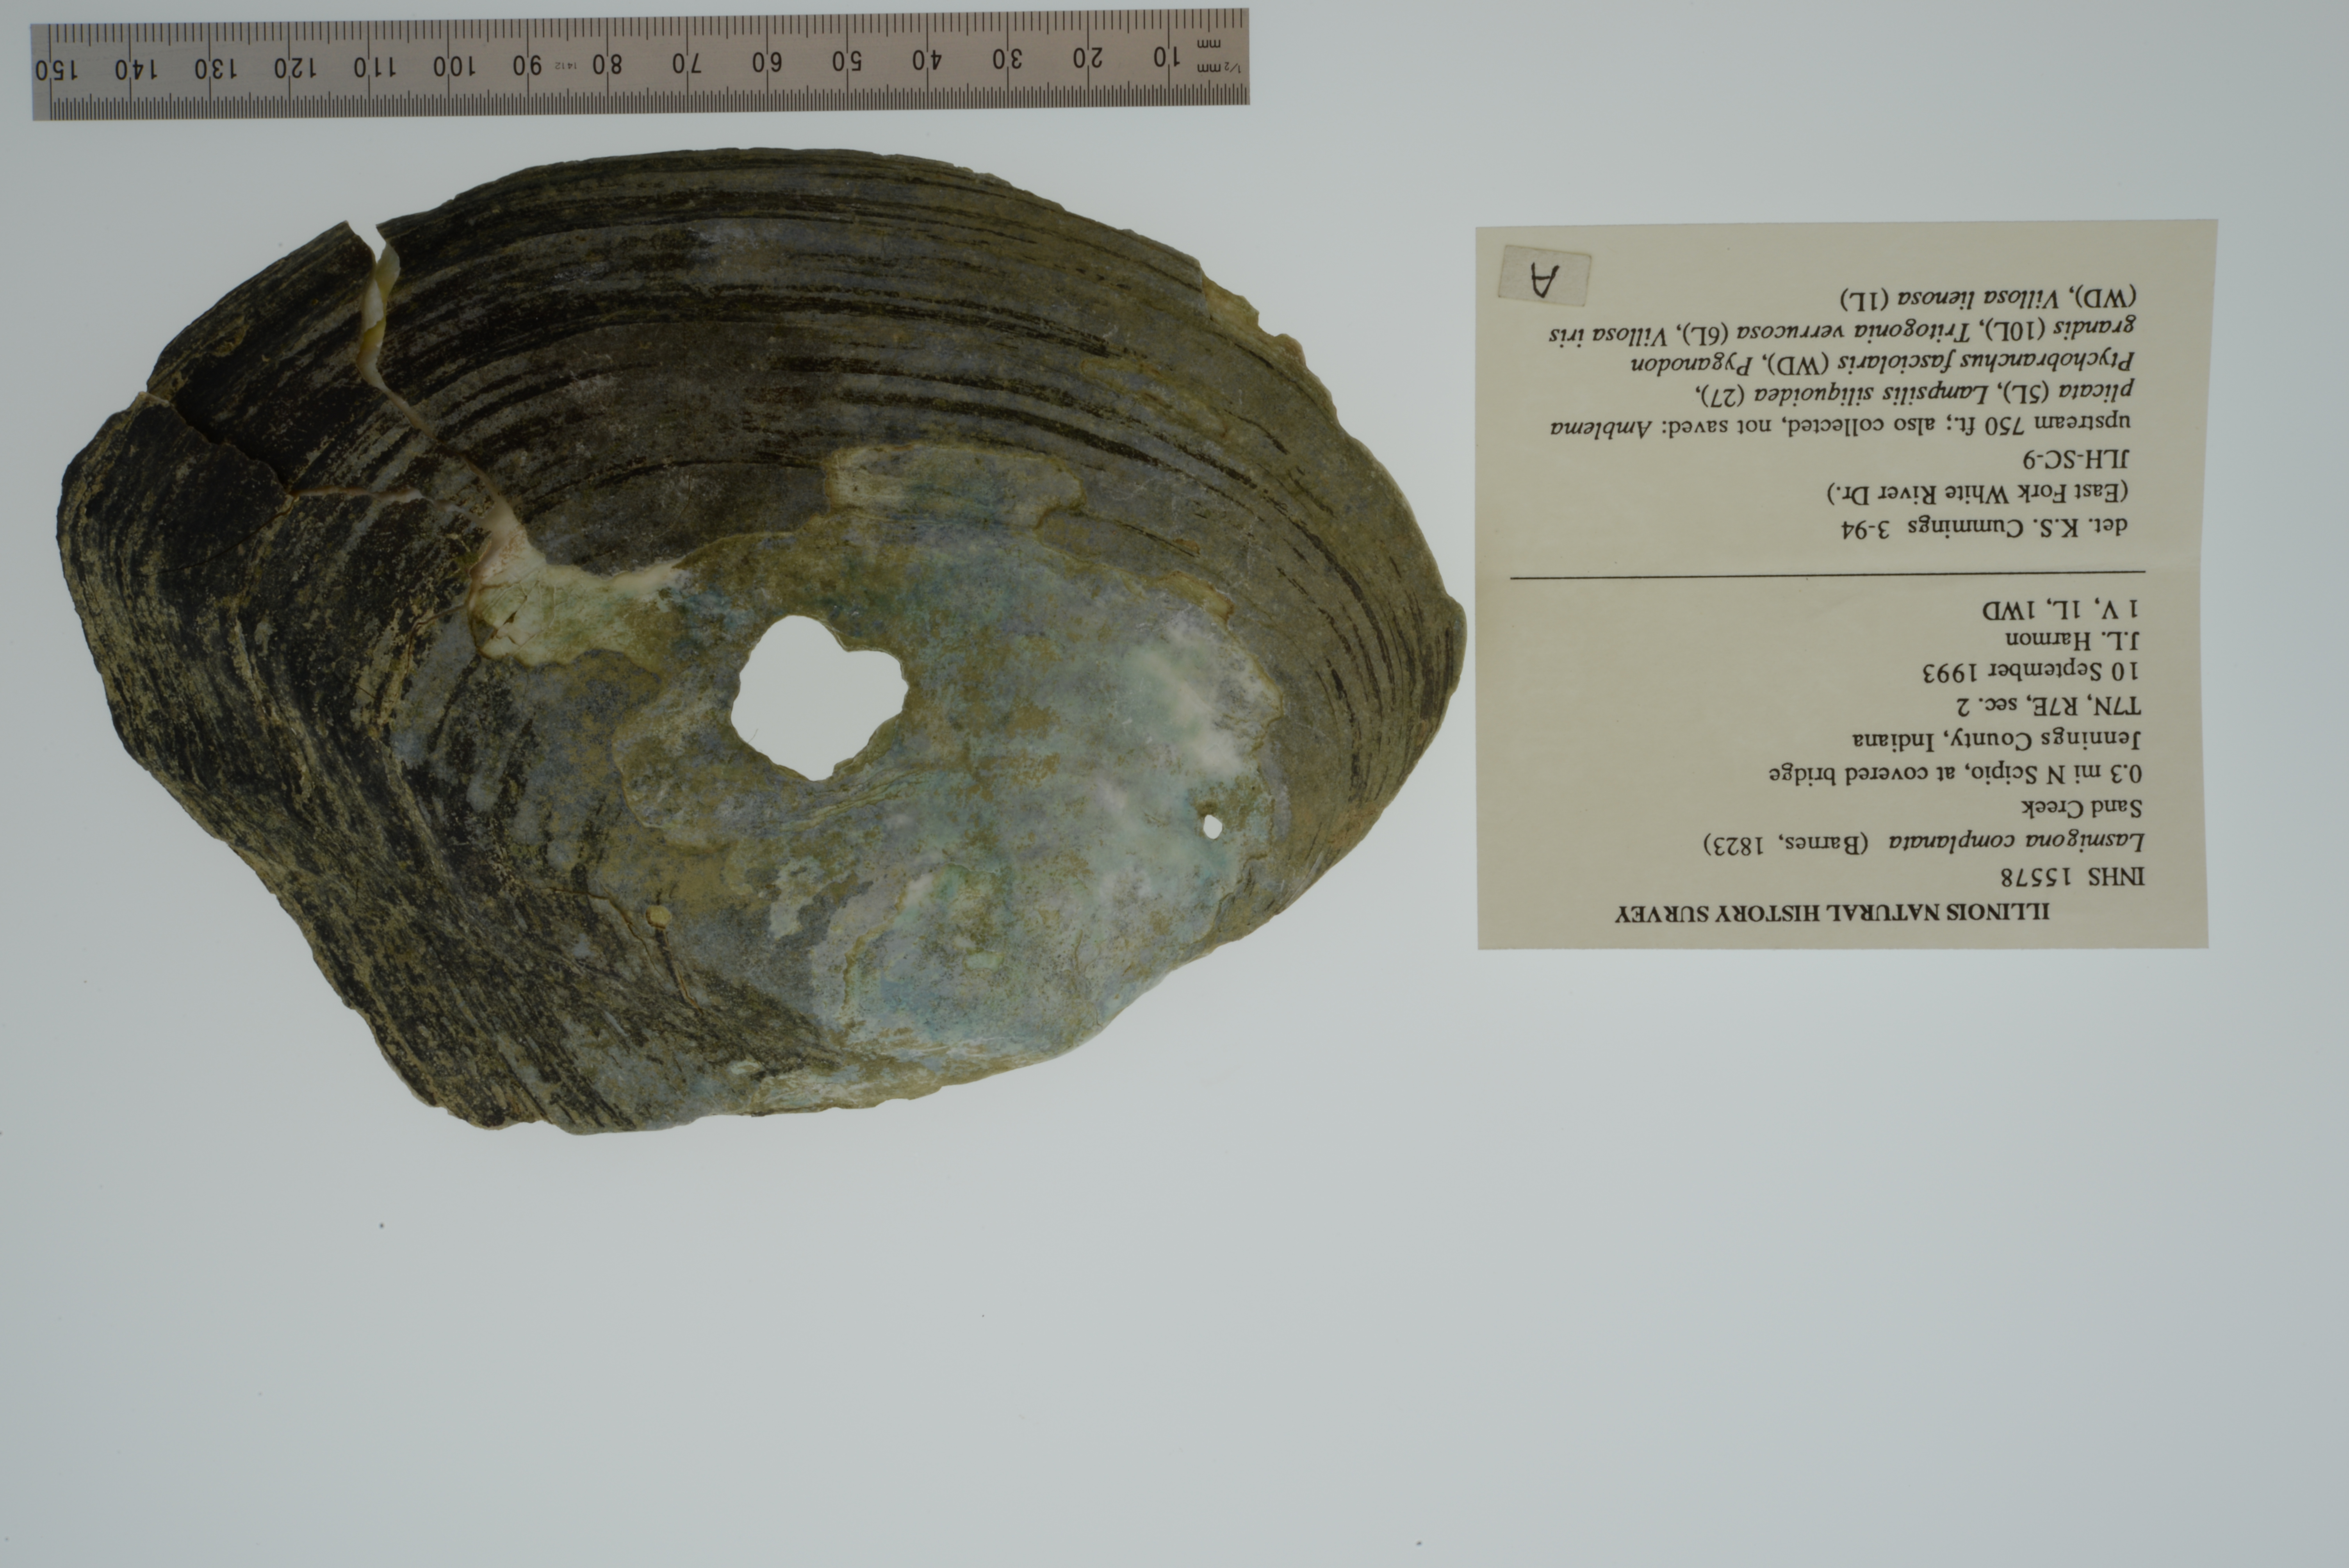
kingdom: Animalia
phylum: Mollusca
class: Bivalvia
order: Unionida
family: Unionidae
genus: Lasmigona
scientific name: Lasmigona complanata
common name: White heelsplitter
